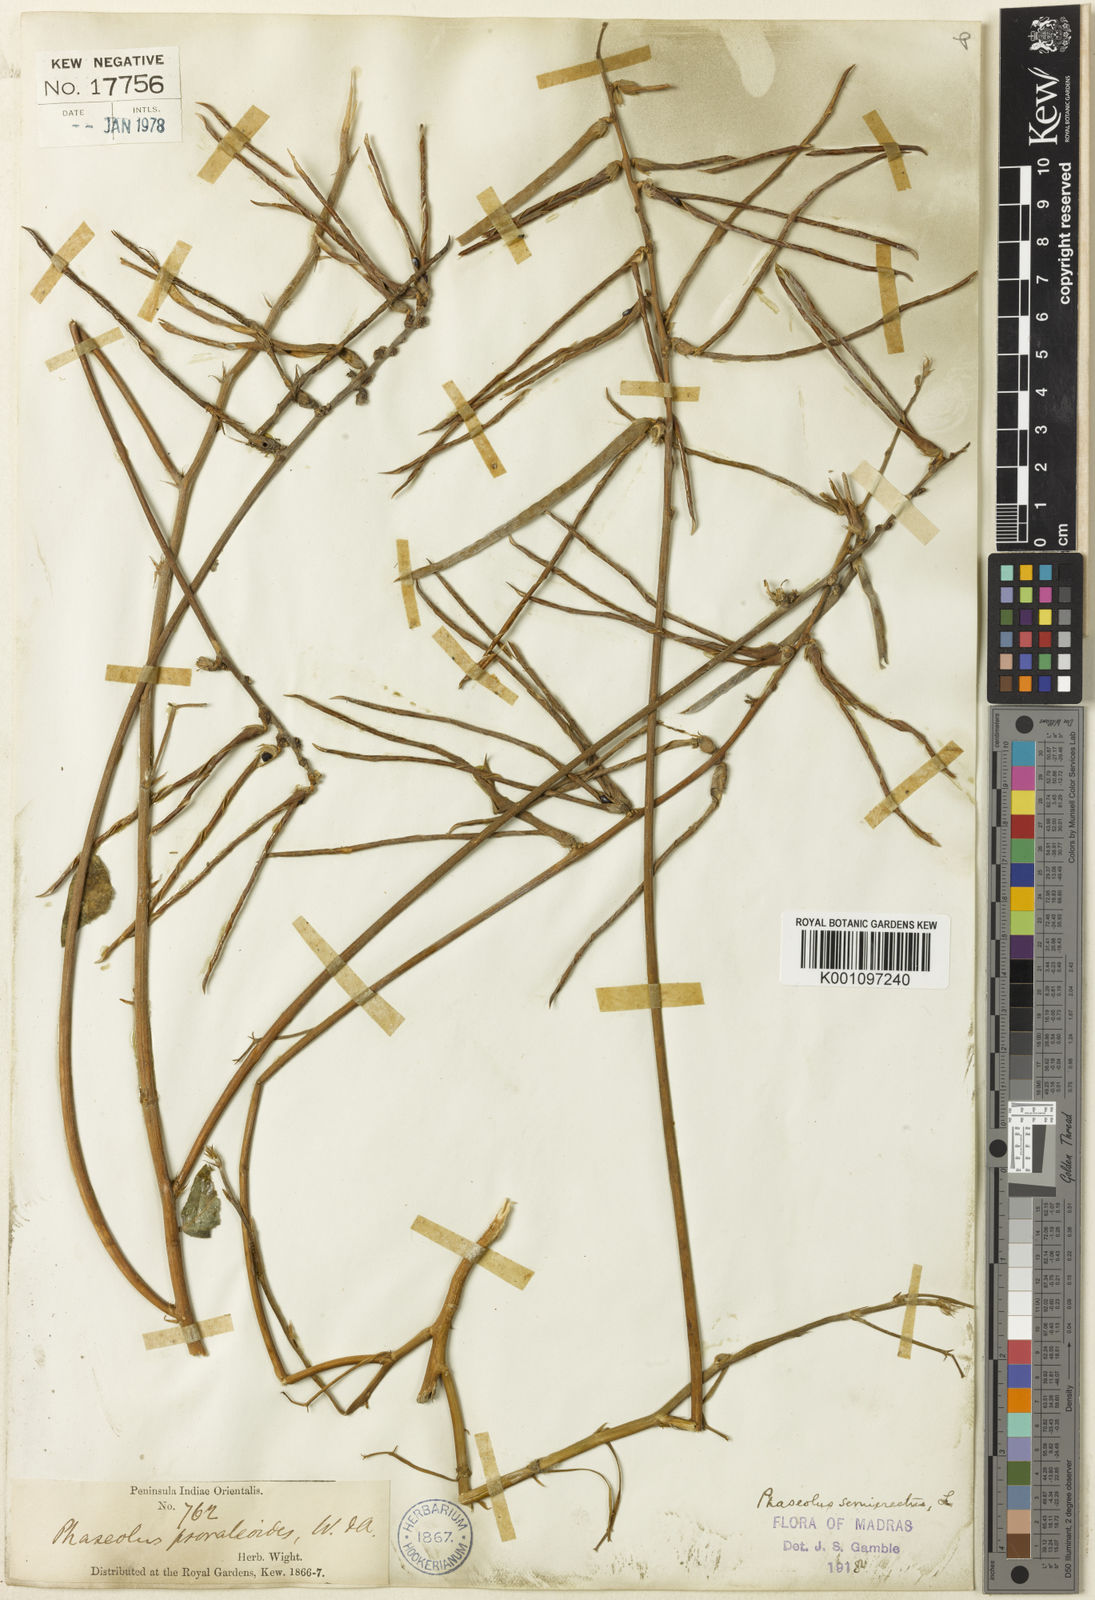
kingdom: Plantae
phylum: Tracheophyta
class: Magnoliopsida
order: Fabales
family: Fabaceae
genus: Macroptilium
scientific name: Macroptilium lathyroides
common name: Wild bushbean
